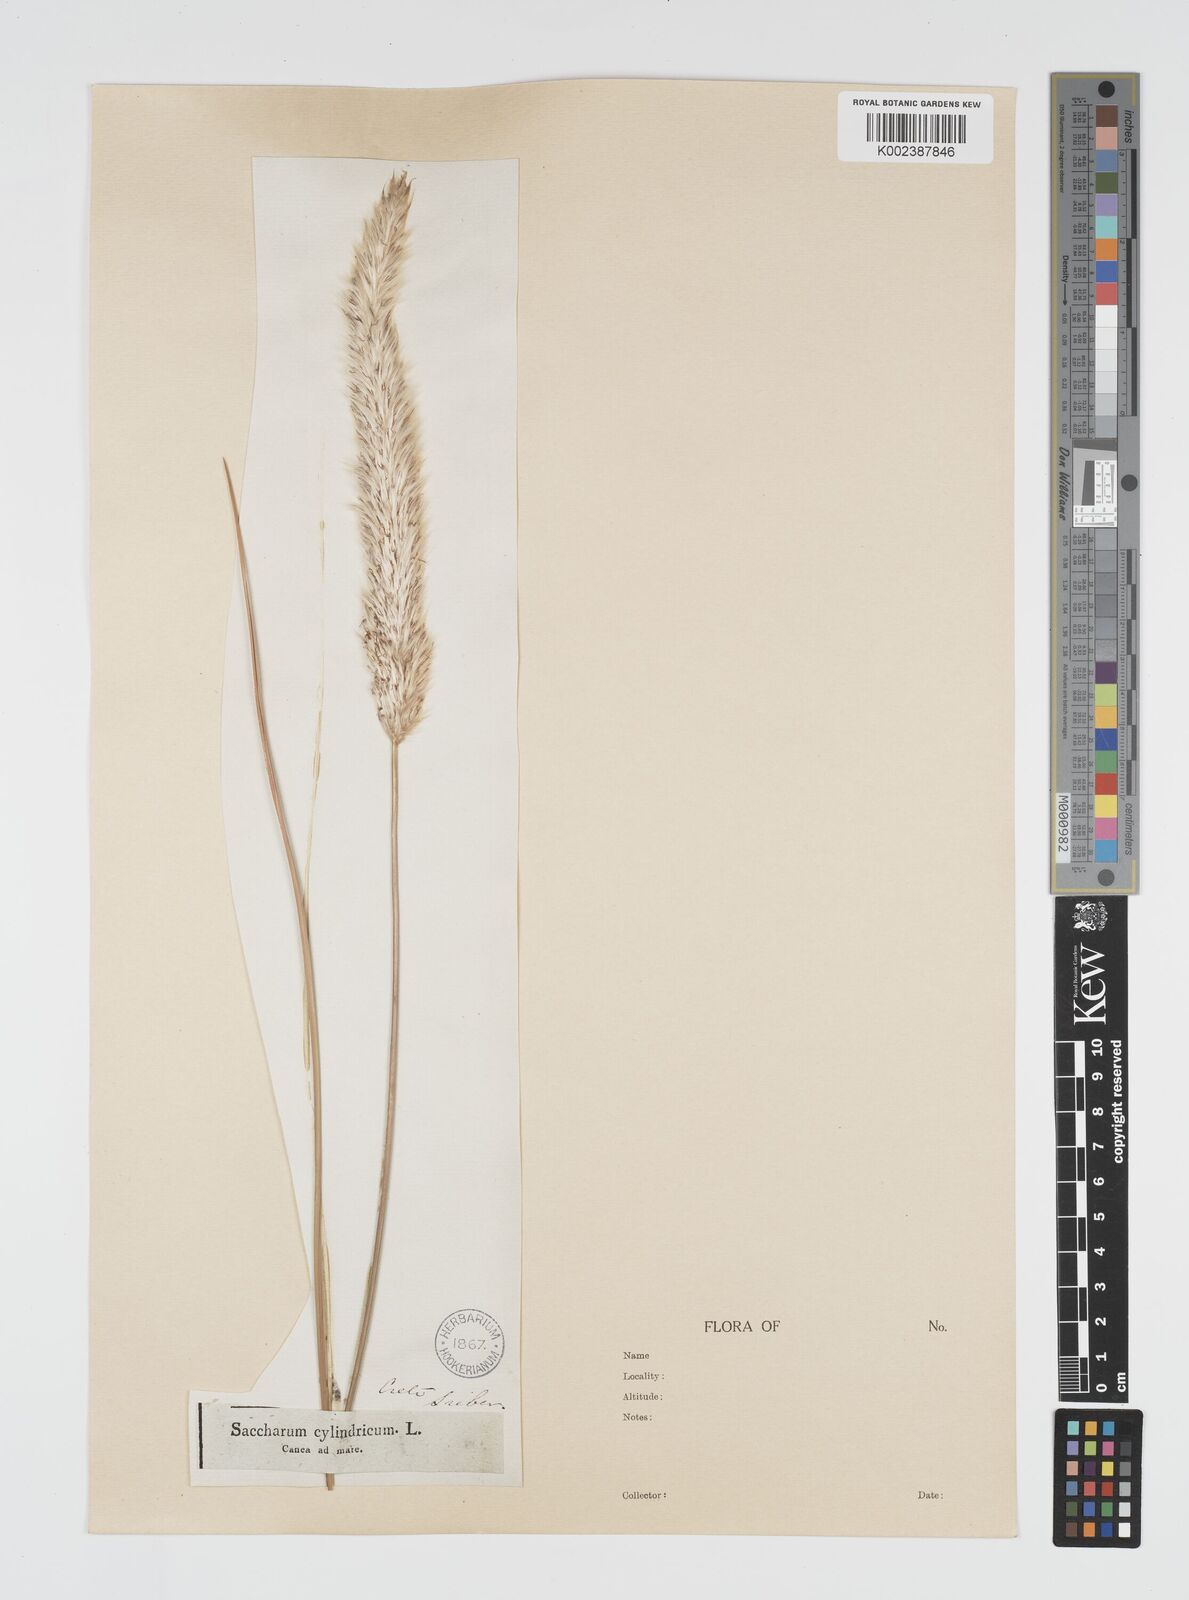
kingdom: Plantae
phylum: Tracheophyta
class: Liliopsida
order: Poales
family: Poaceae
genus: Imperata
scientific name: Imperata cylindrica
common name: Cogongrass
